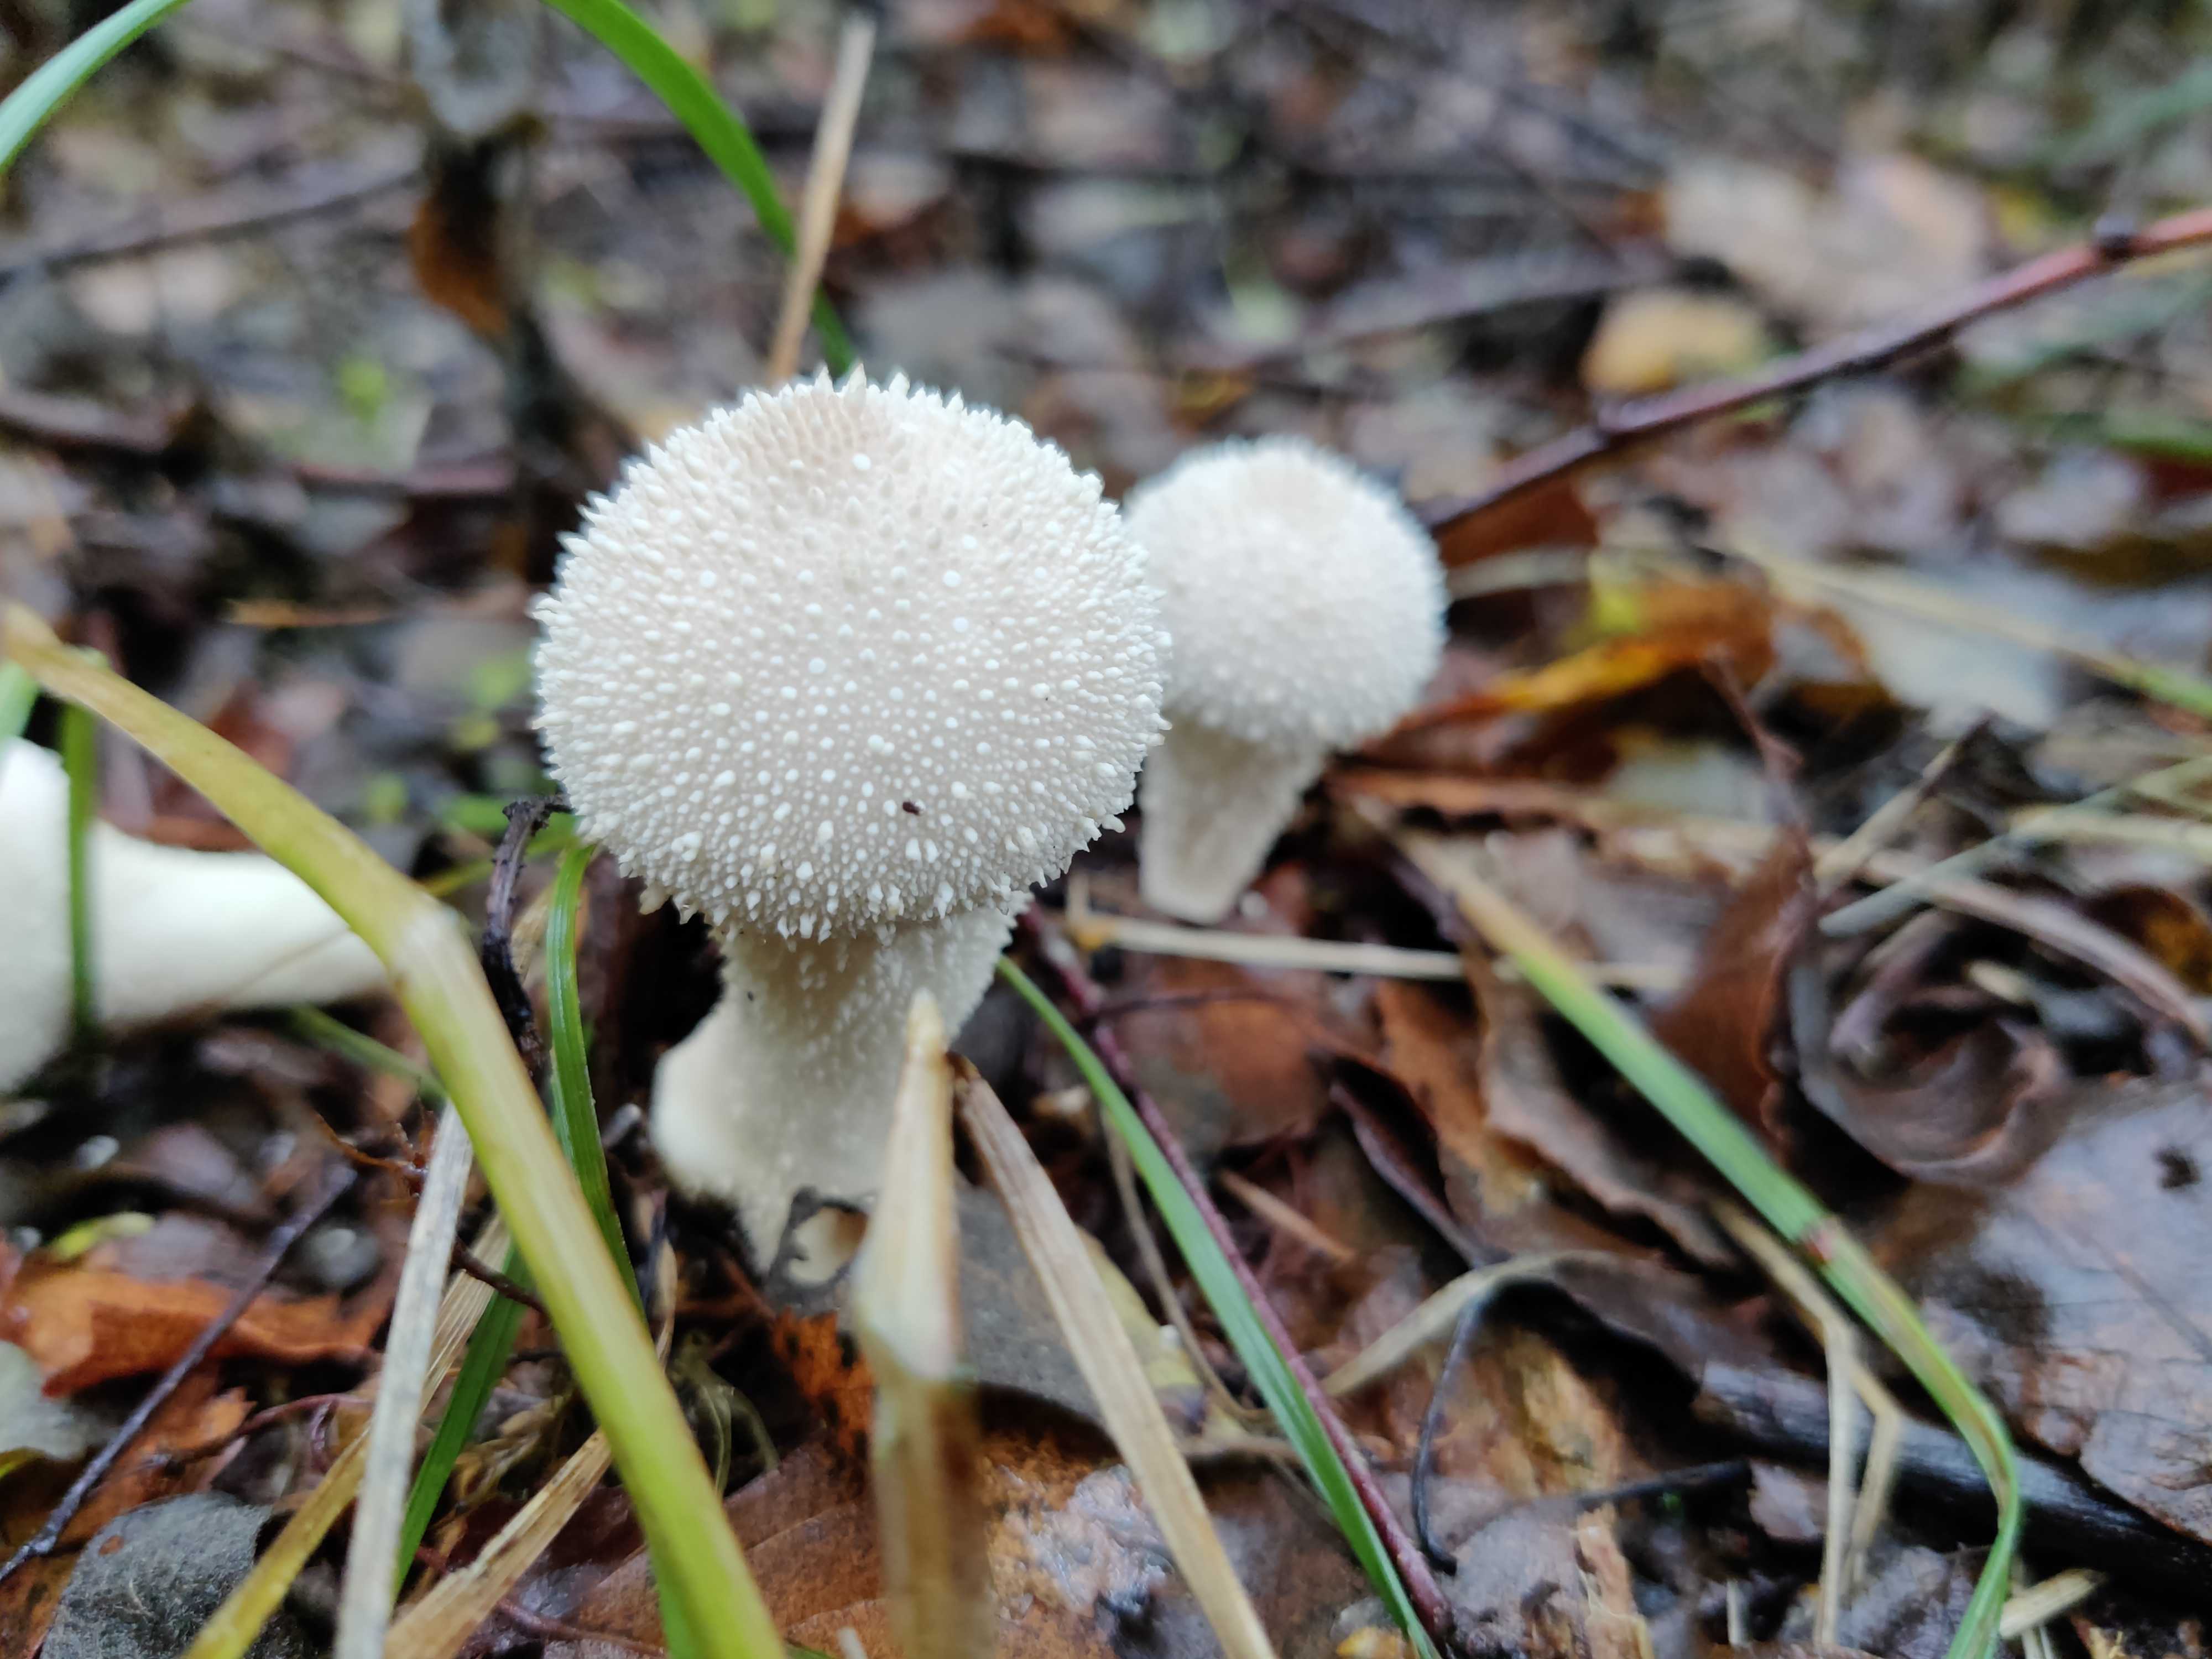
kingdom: Fungi
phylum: Basidiomycota
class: Agaricomycetes
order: Agaricales
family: Lycoperdaceae
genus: Lycoperdon
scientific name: Lycoperdon perlatum
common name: krystal-støvbold
